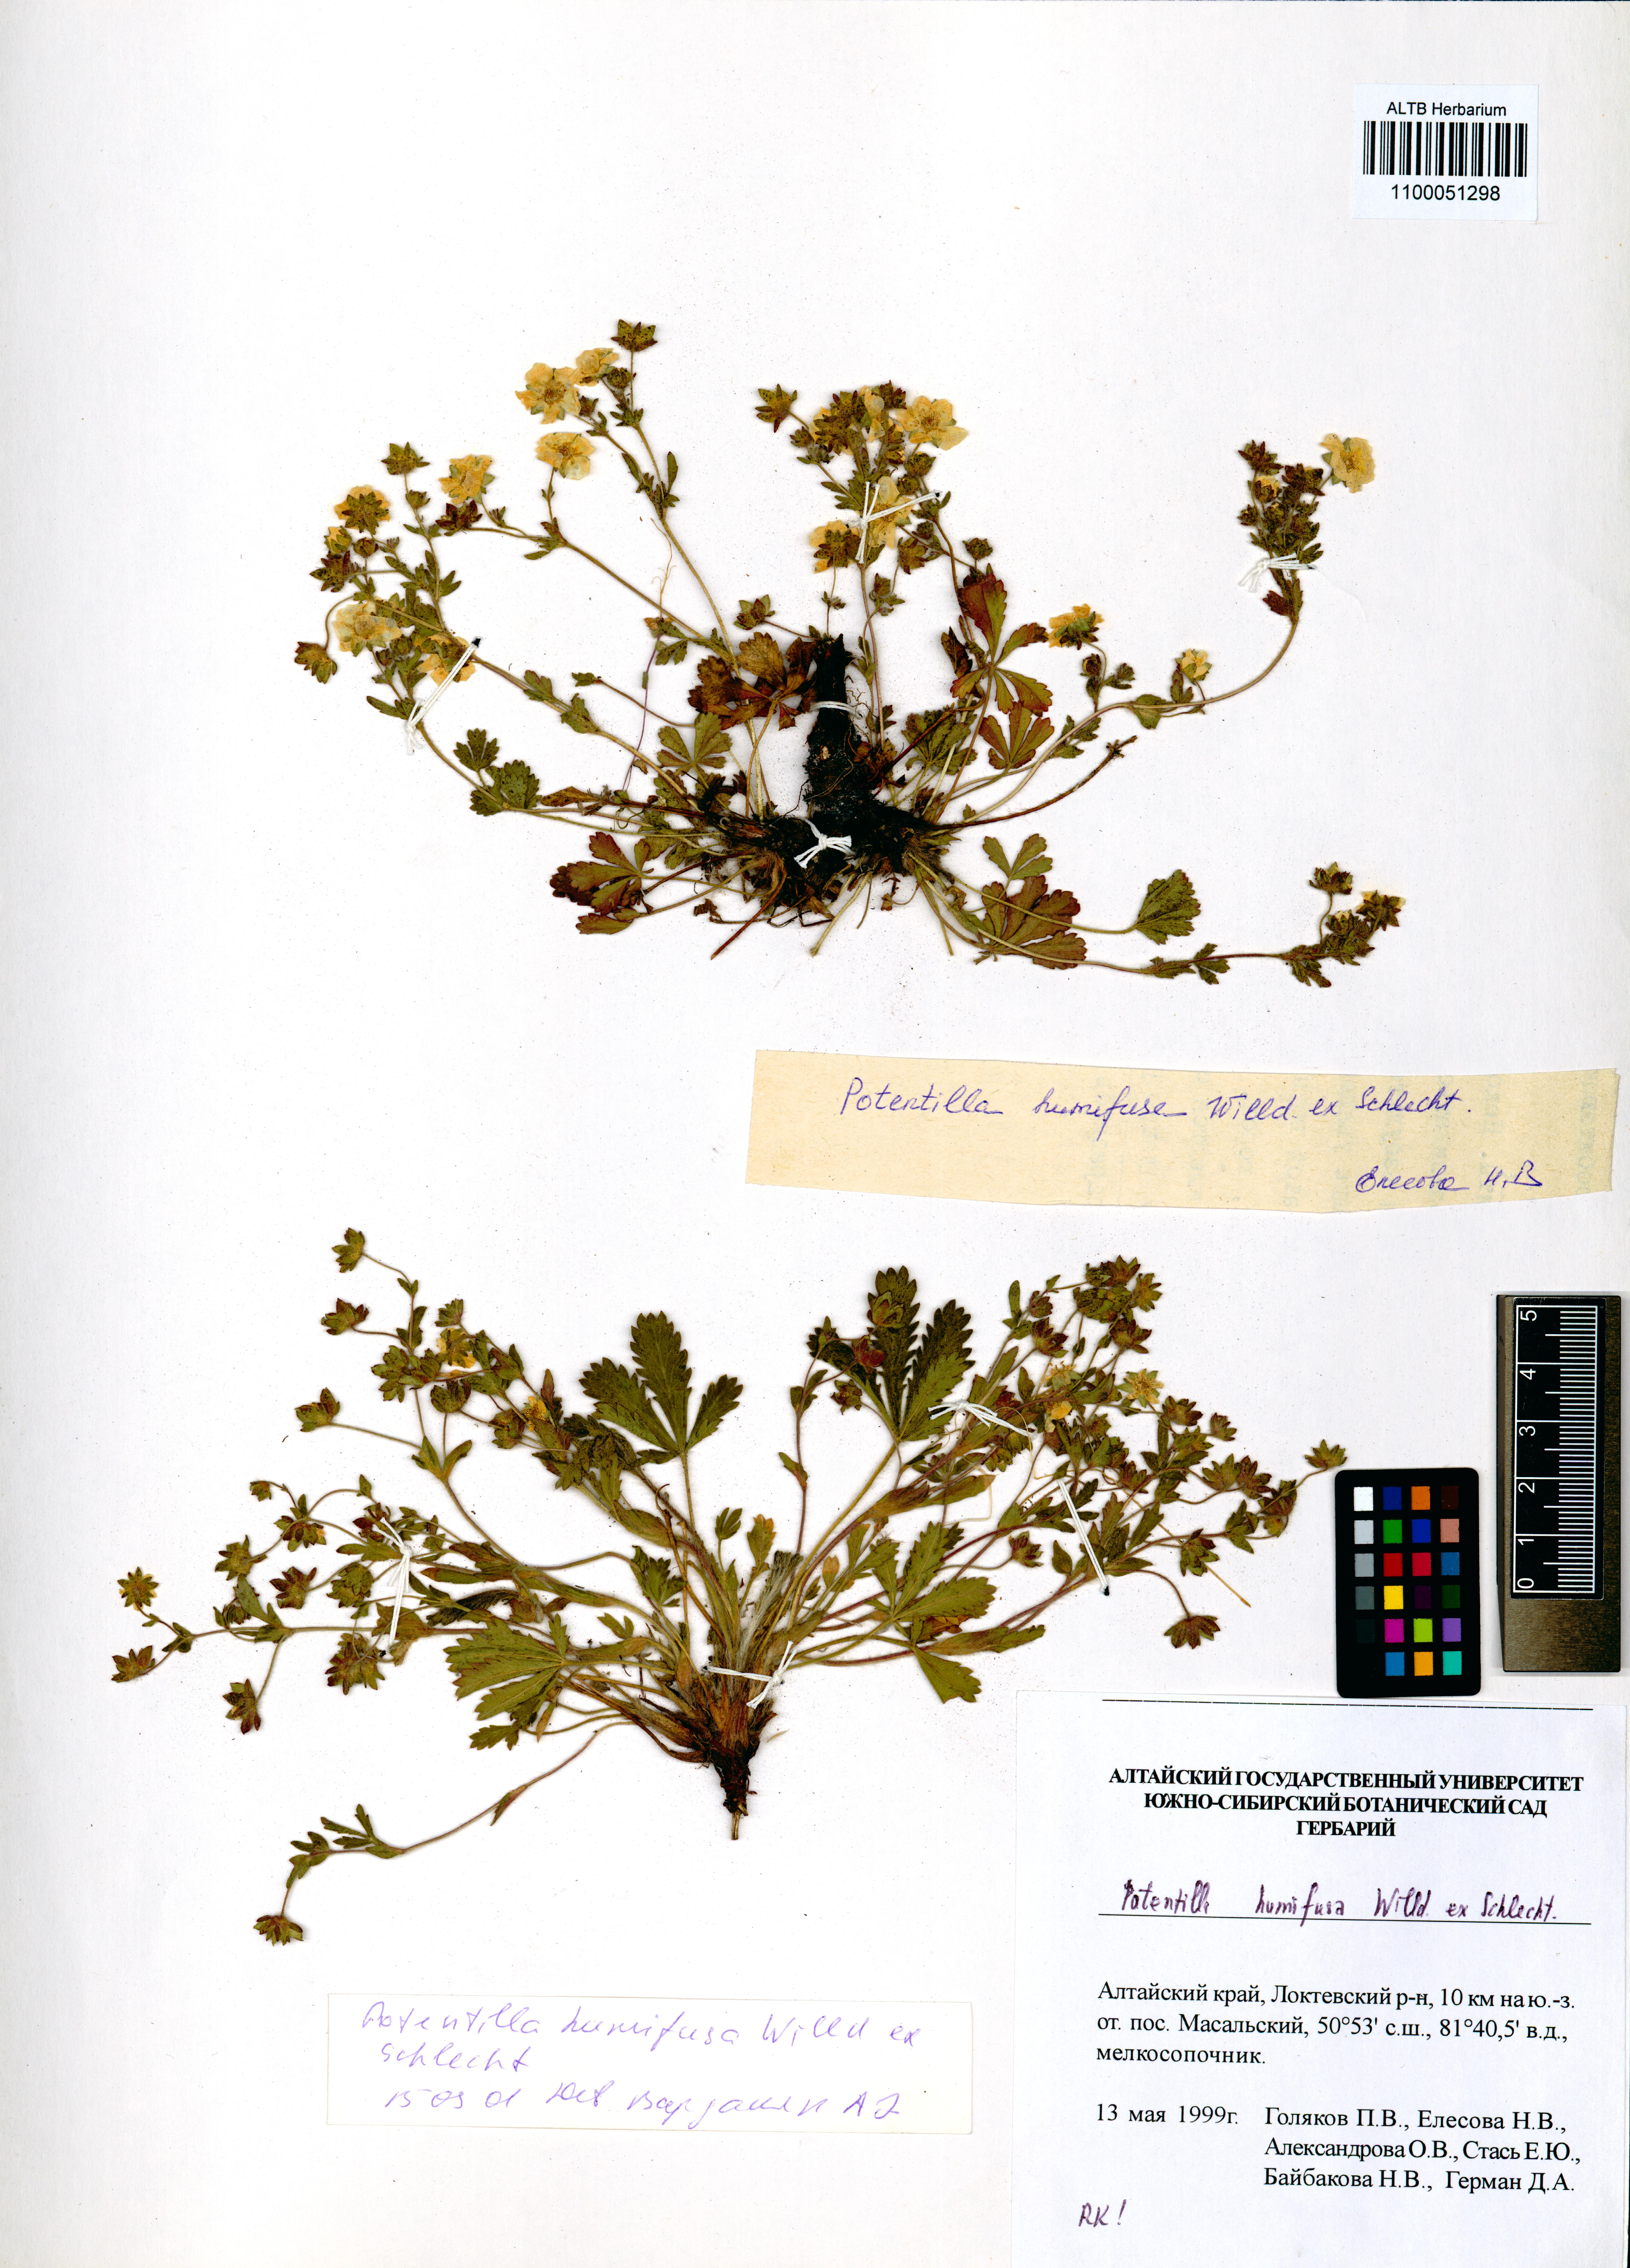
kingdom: Plantae
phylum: Tracheophyta
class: Magnoliopsida
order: Rosales
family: Rosaceae
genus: Potentilla
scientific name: Potentilla humifusa
